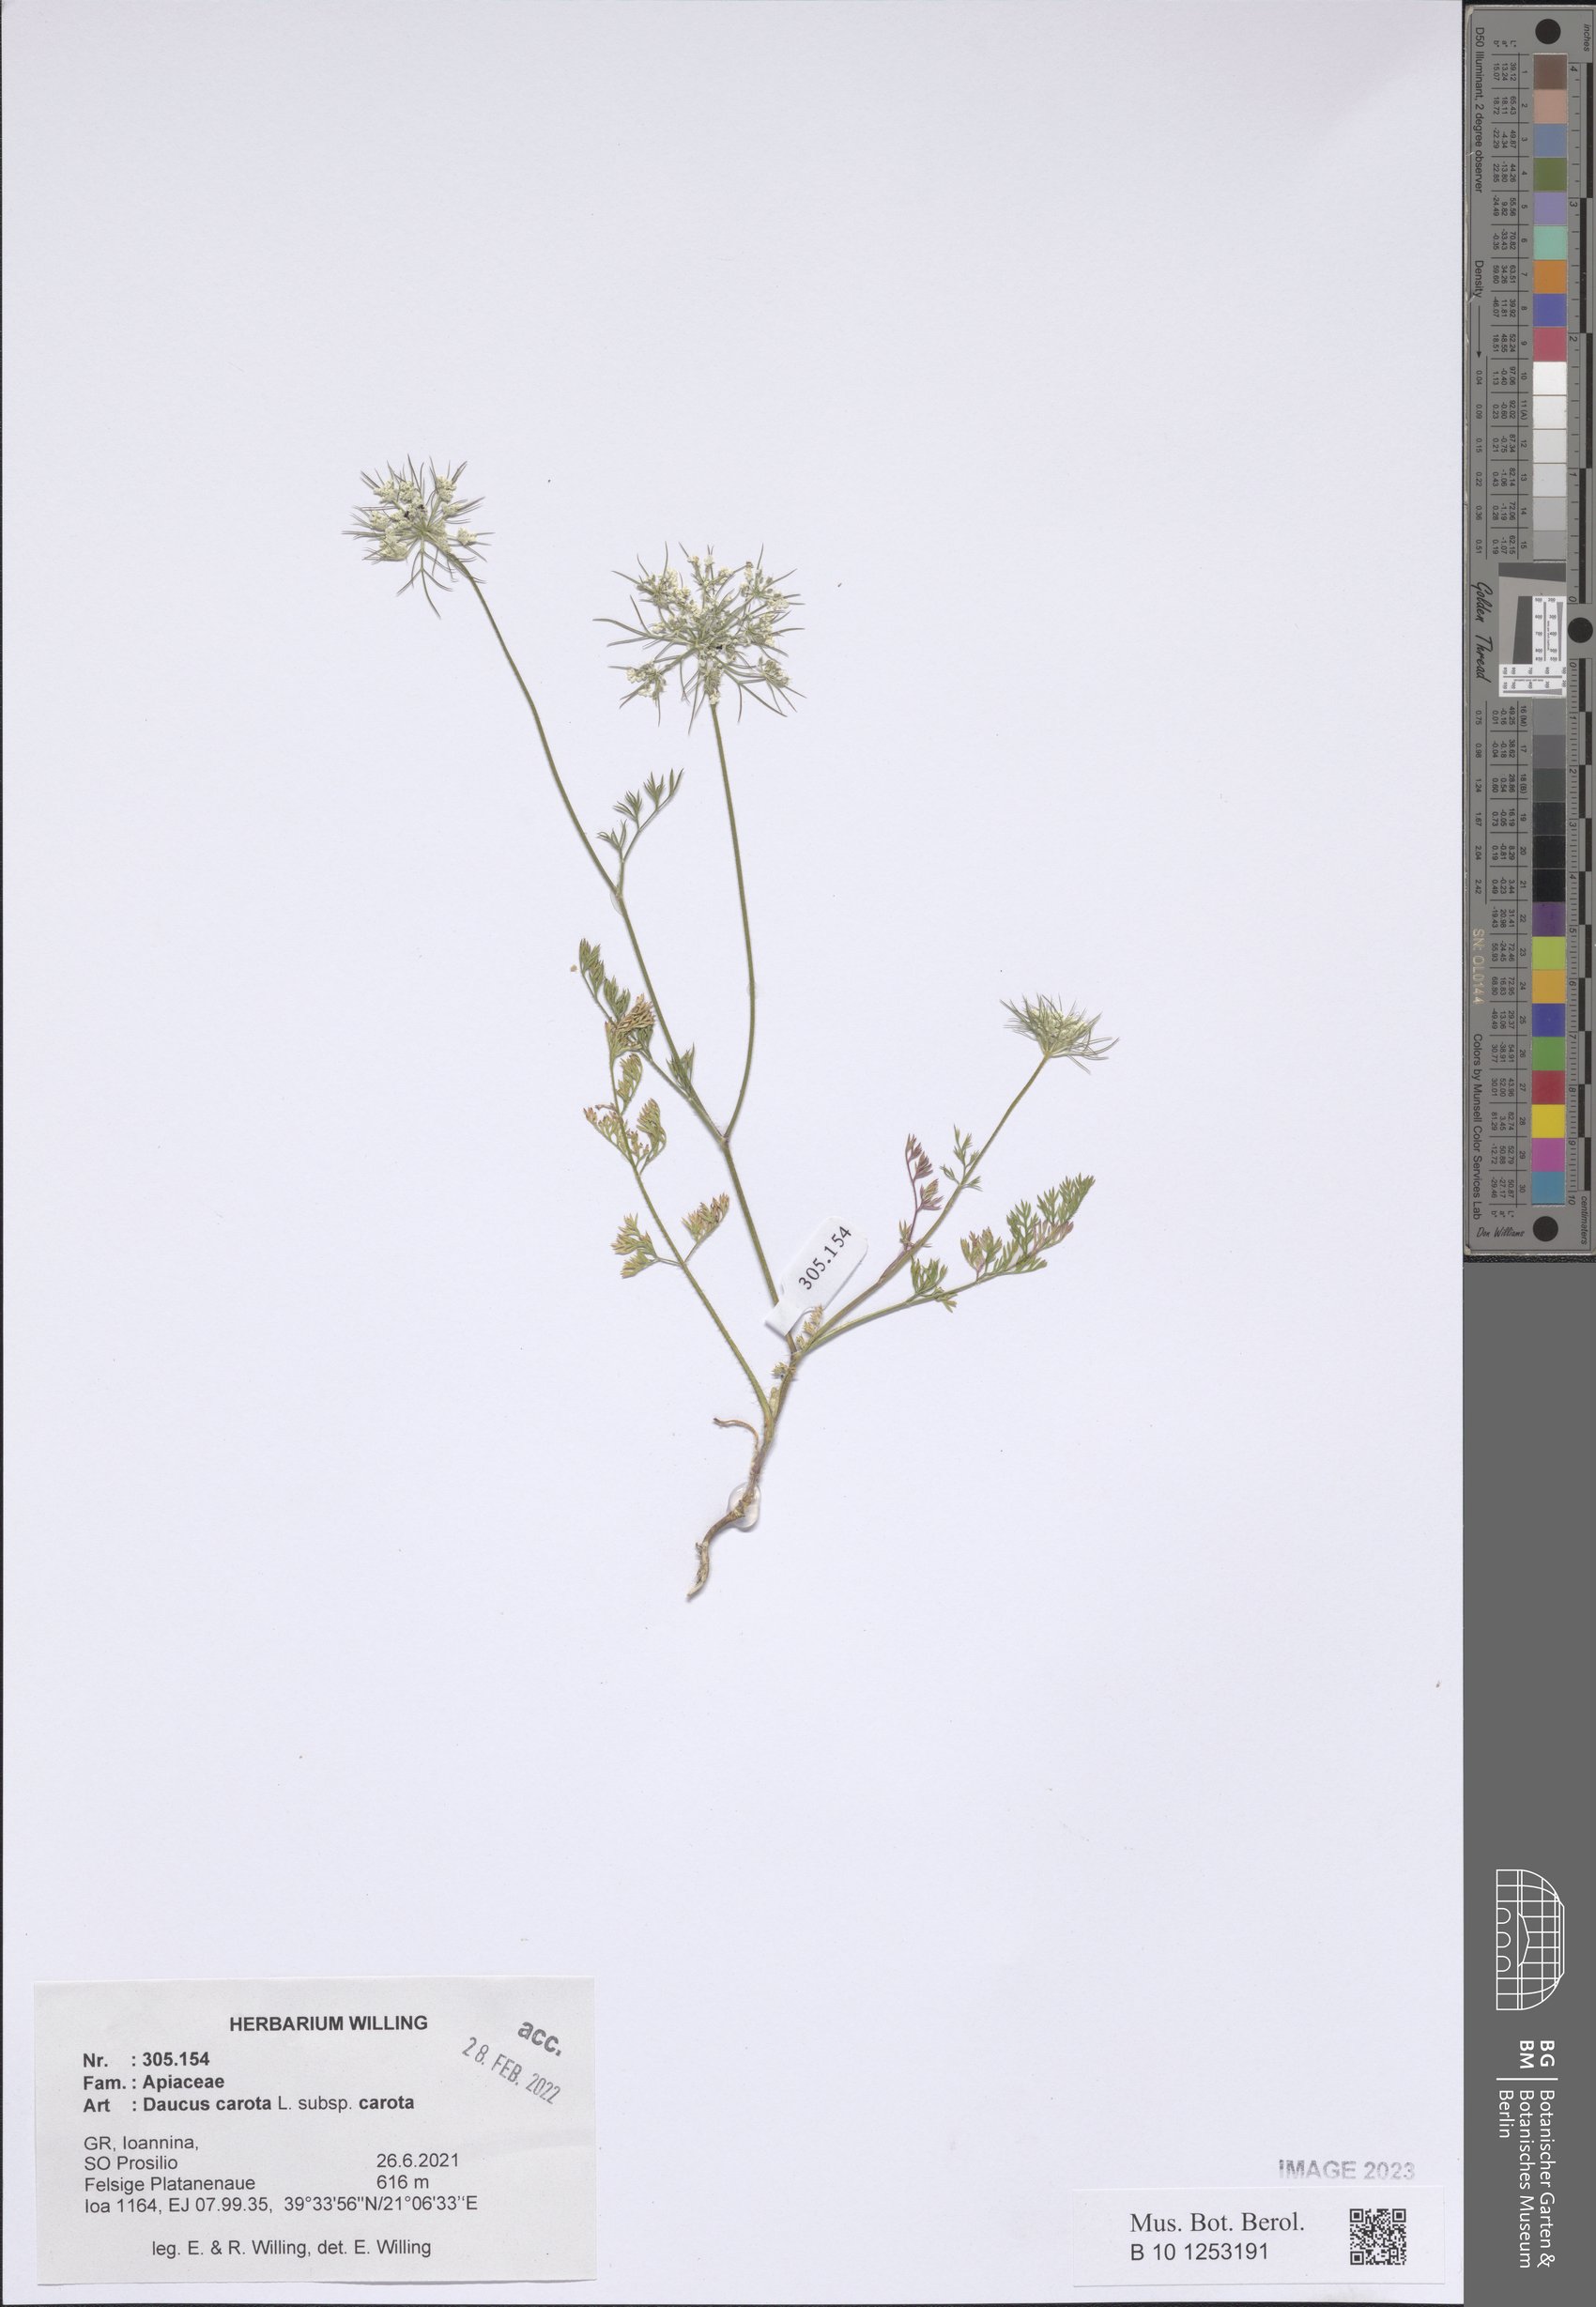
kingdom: Plantae
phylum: Tracheophyta
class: Magnoliopsida
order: Apiales
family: Apiaceae
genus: Daucus
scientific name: Daucus carota
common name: Wild carrot
